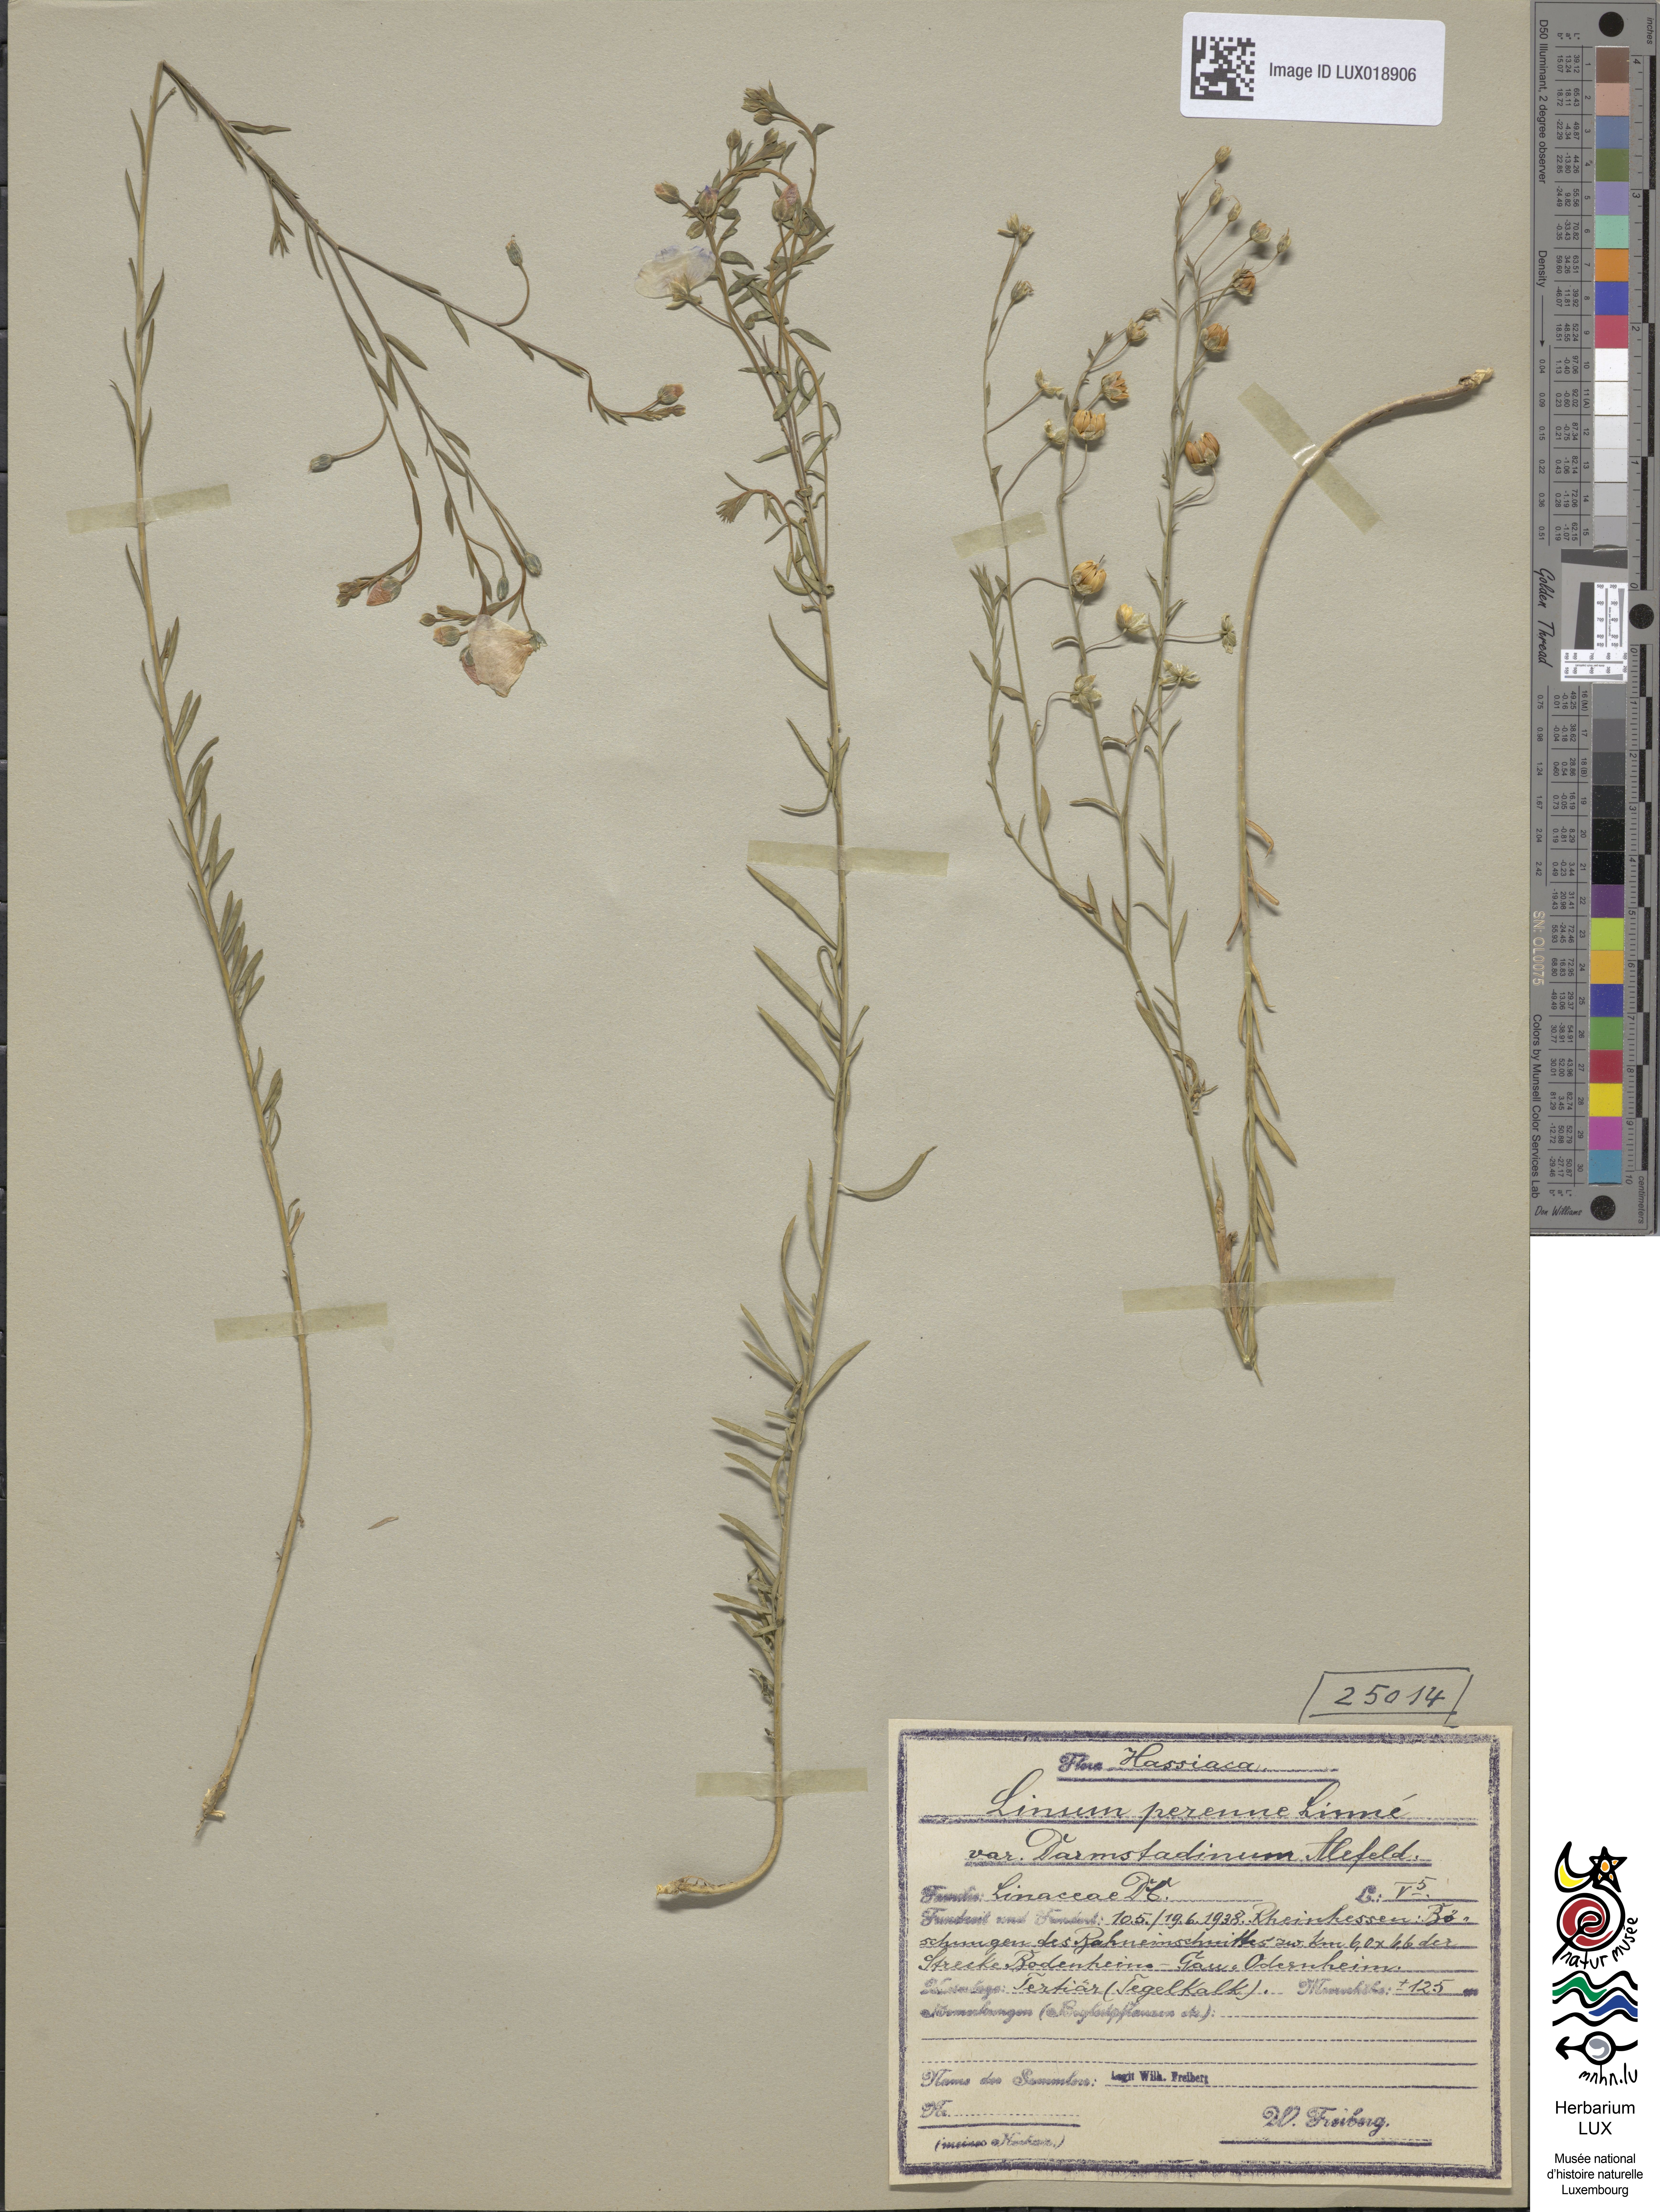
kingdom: Plantae
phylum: Tracheophyta
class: Magnoliopsida
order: Malpighiales
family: Linaceae
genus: Linum
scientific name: Linum perenne
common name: Blue flax
